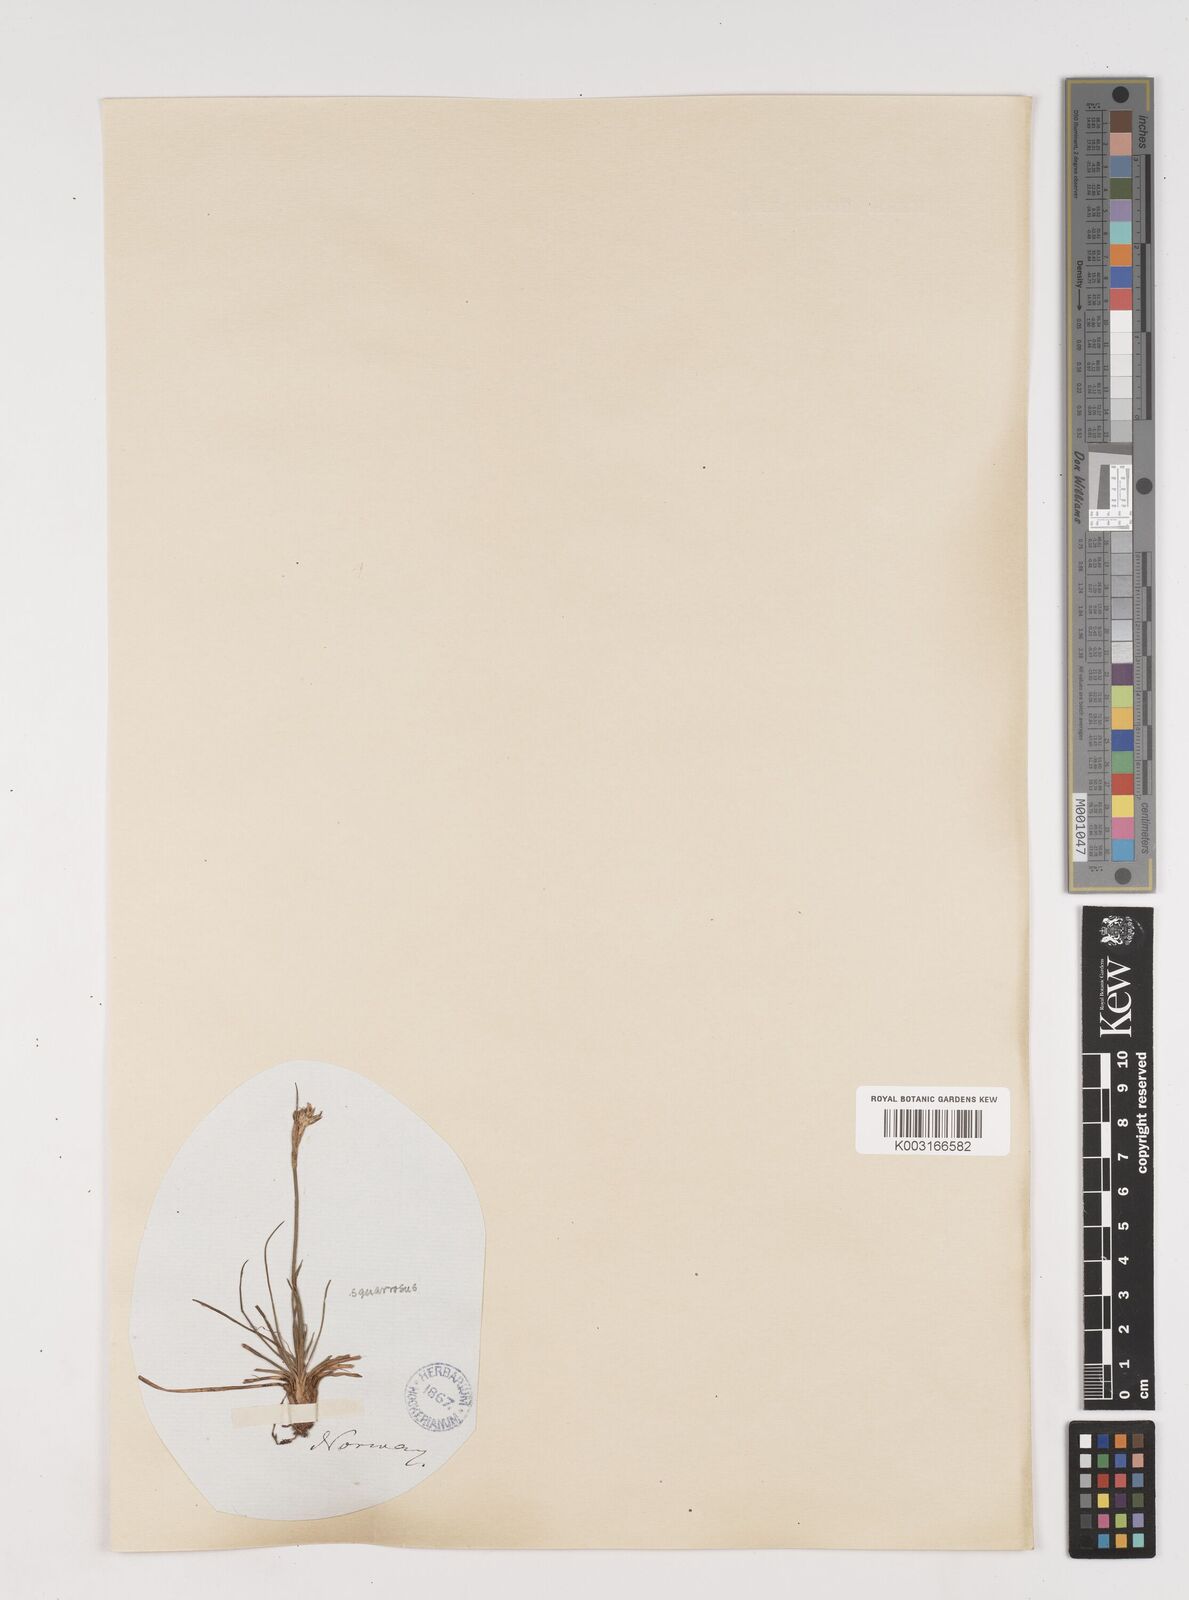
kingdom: Plantae
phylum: Tracheophyta
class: Liliopsida
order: Poales
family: Juncaceae
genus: Juncus
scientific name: Juncus squarrosus
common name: Heath rush
